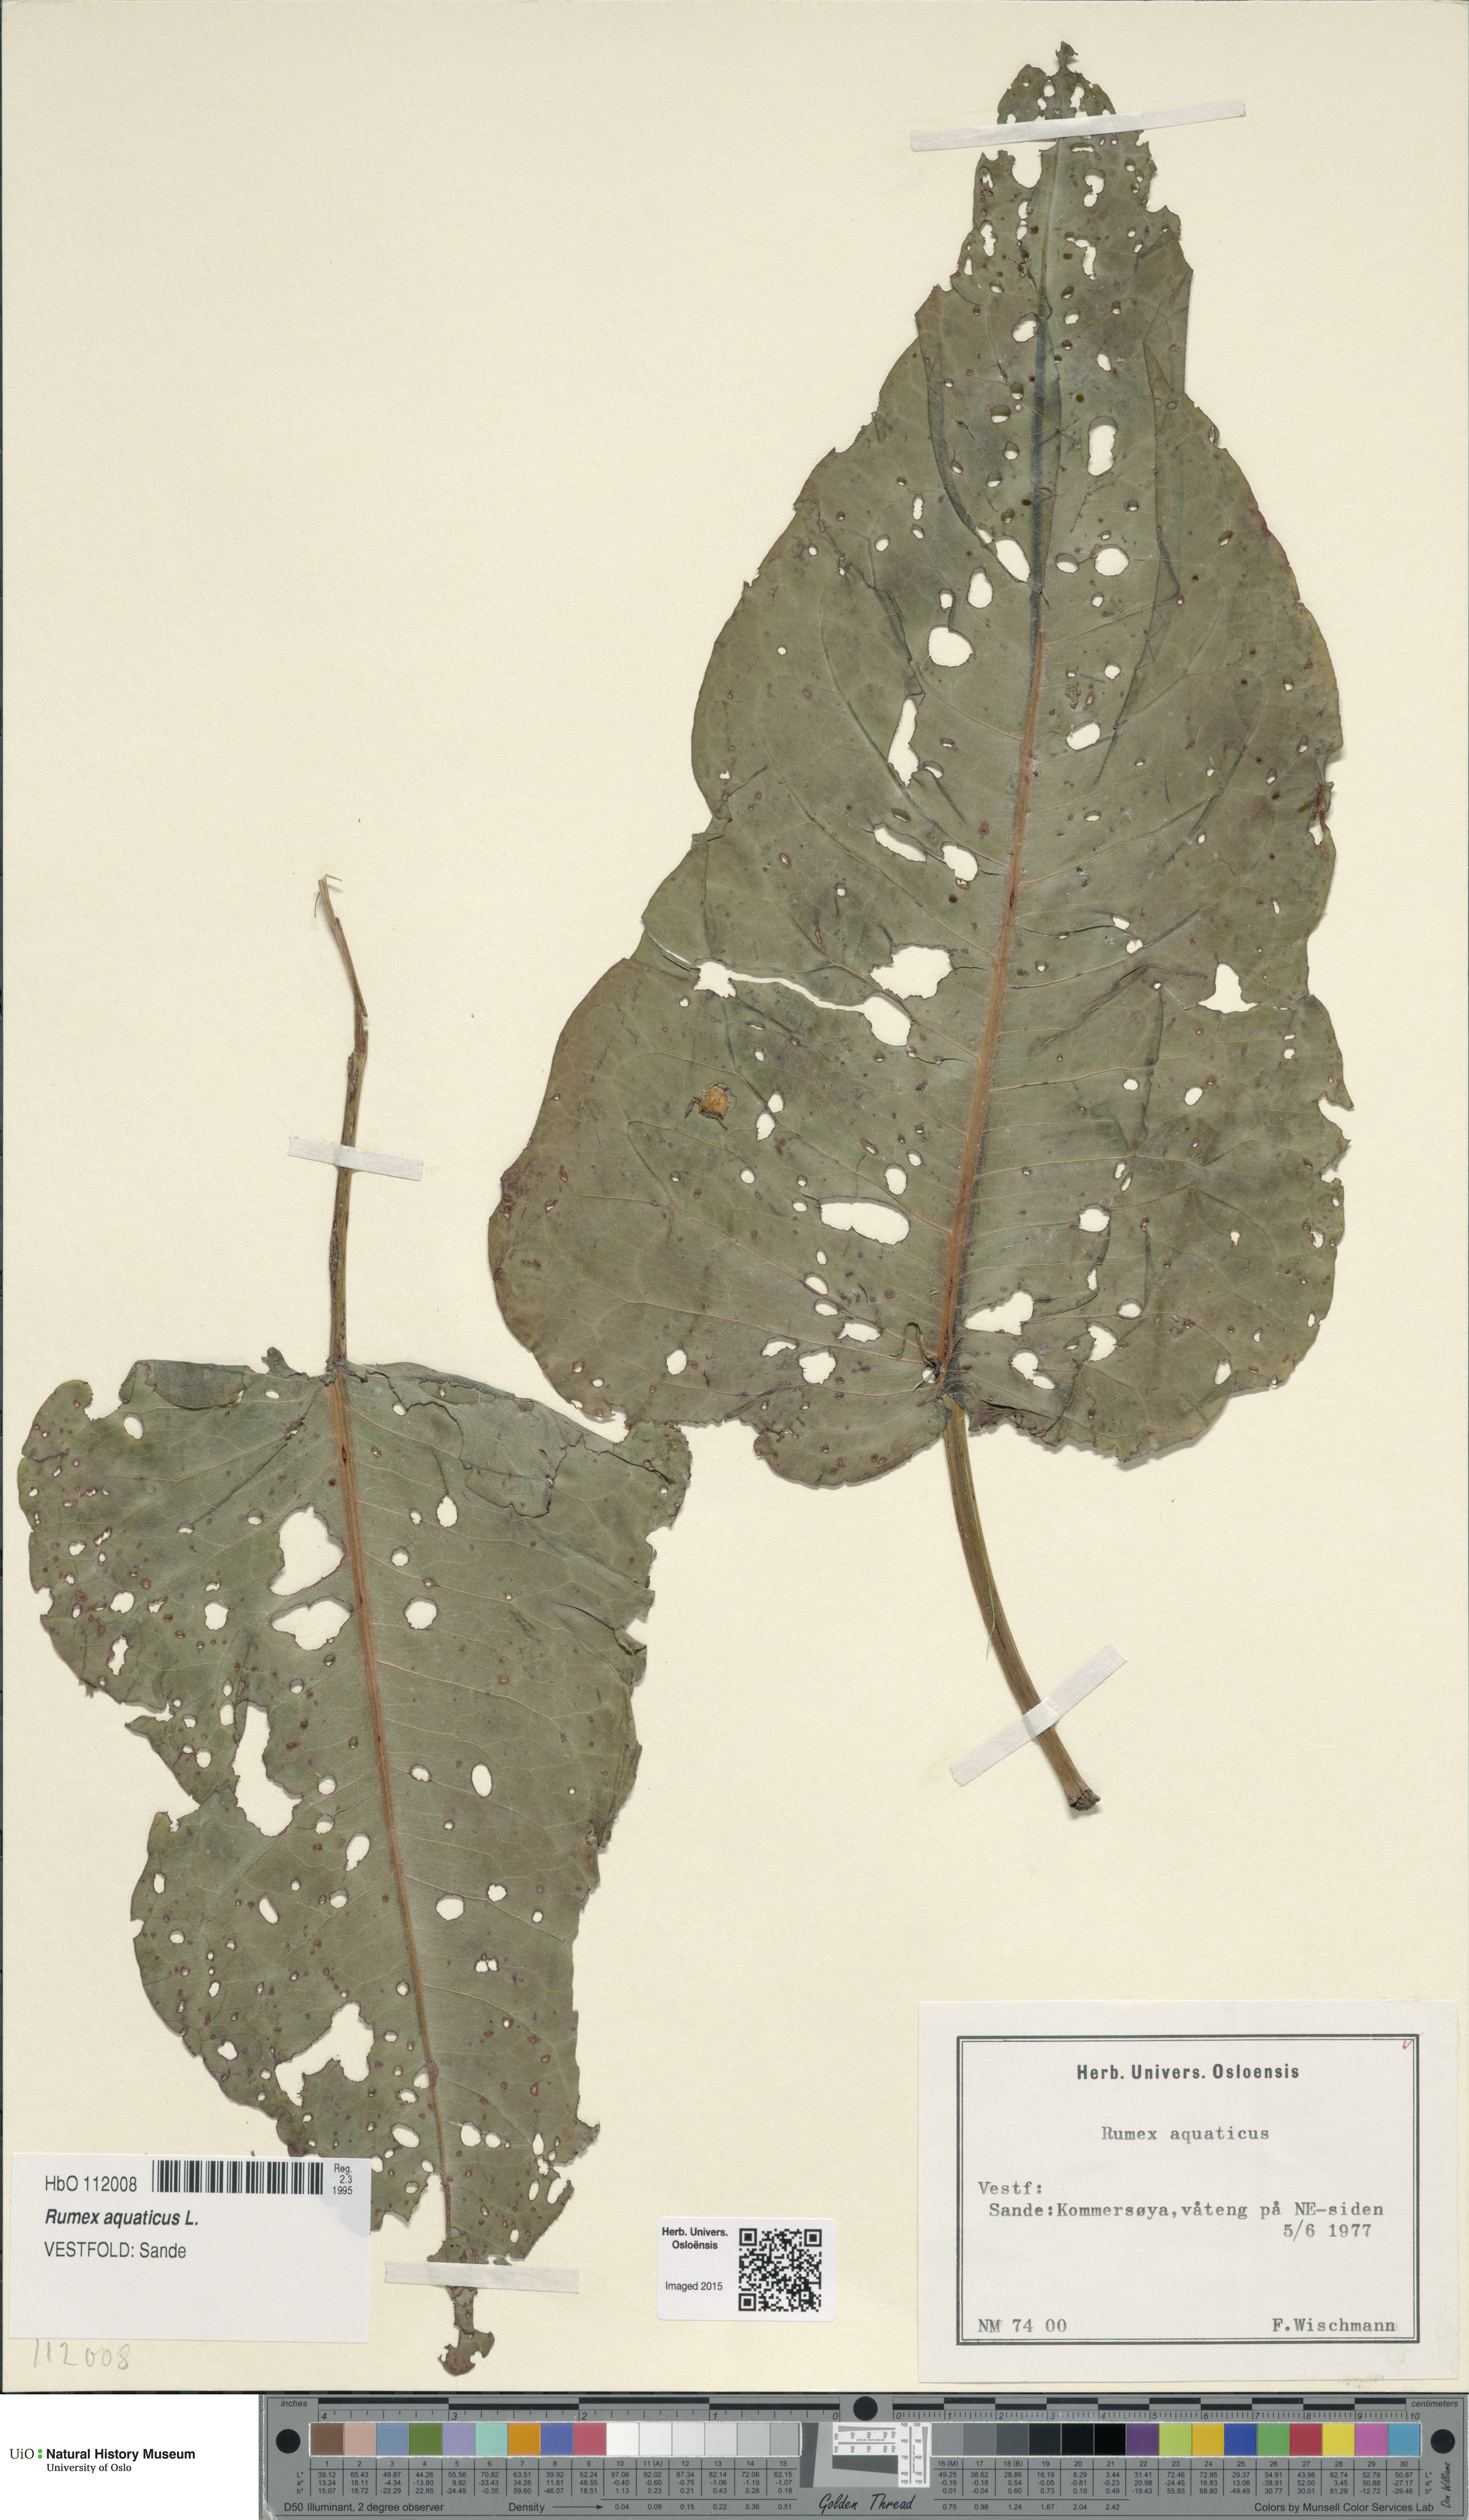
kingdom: Plantae
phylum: Tracheophyta
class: Magnoliopsida
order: Caryophyllales
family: Polygonaceae
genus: Rumex
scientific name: Rumex aquaticus
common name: Scottish dock
